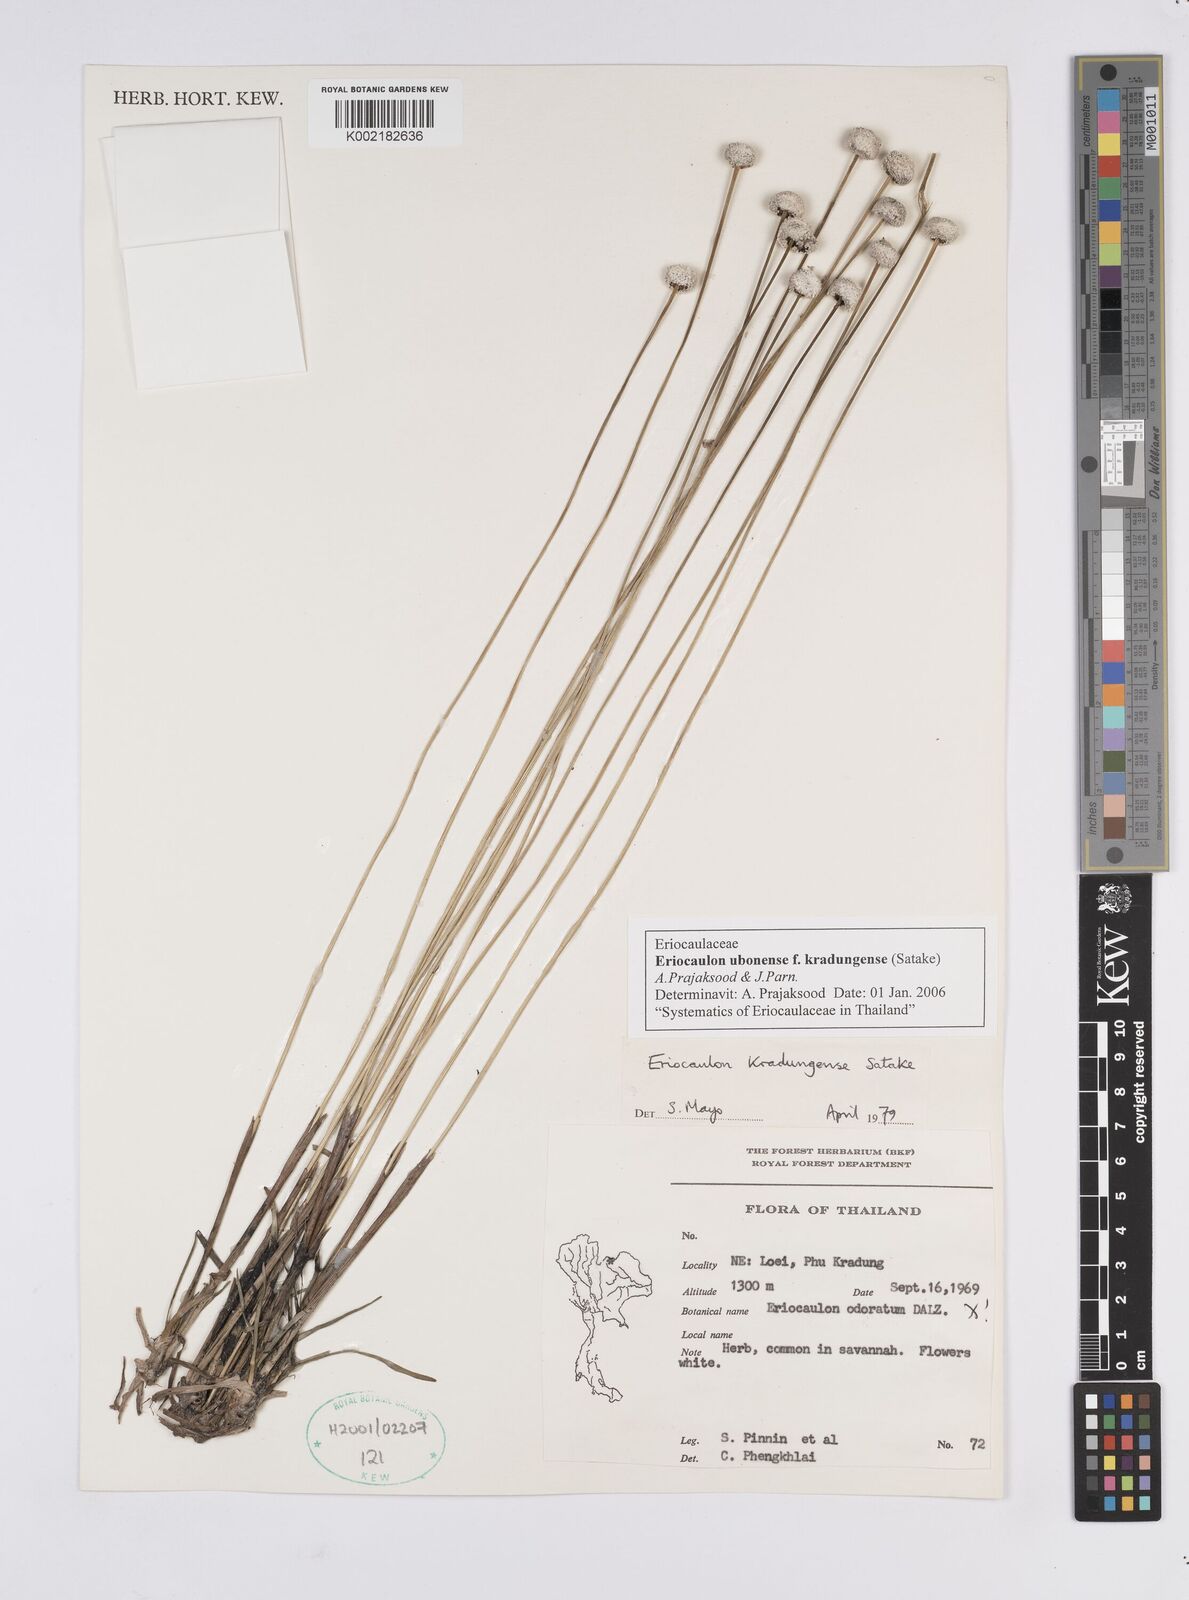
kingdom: Plantae
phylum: Tracheophyta
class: Liliopsida
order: Poales
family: Eriocaulaceae
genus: Eriocaulon
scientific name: Eriocaulon ubonense
